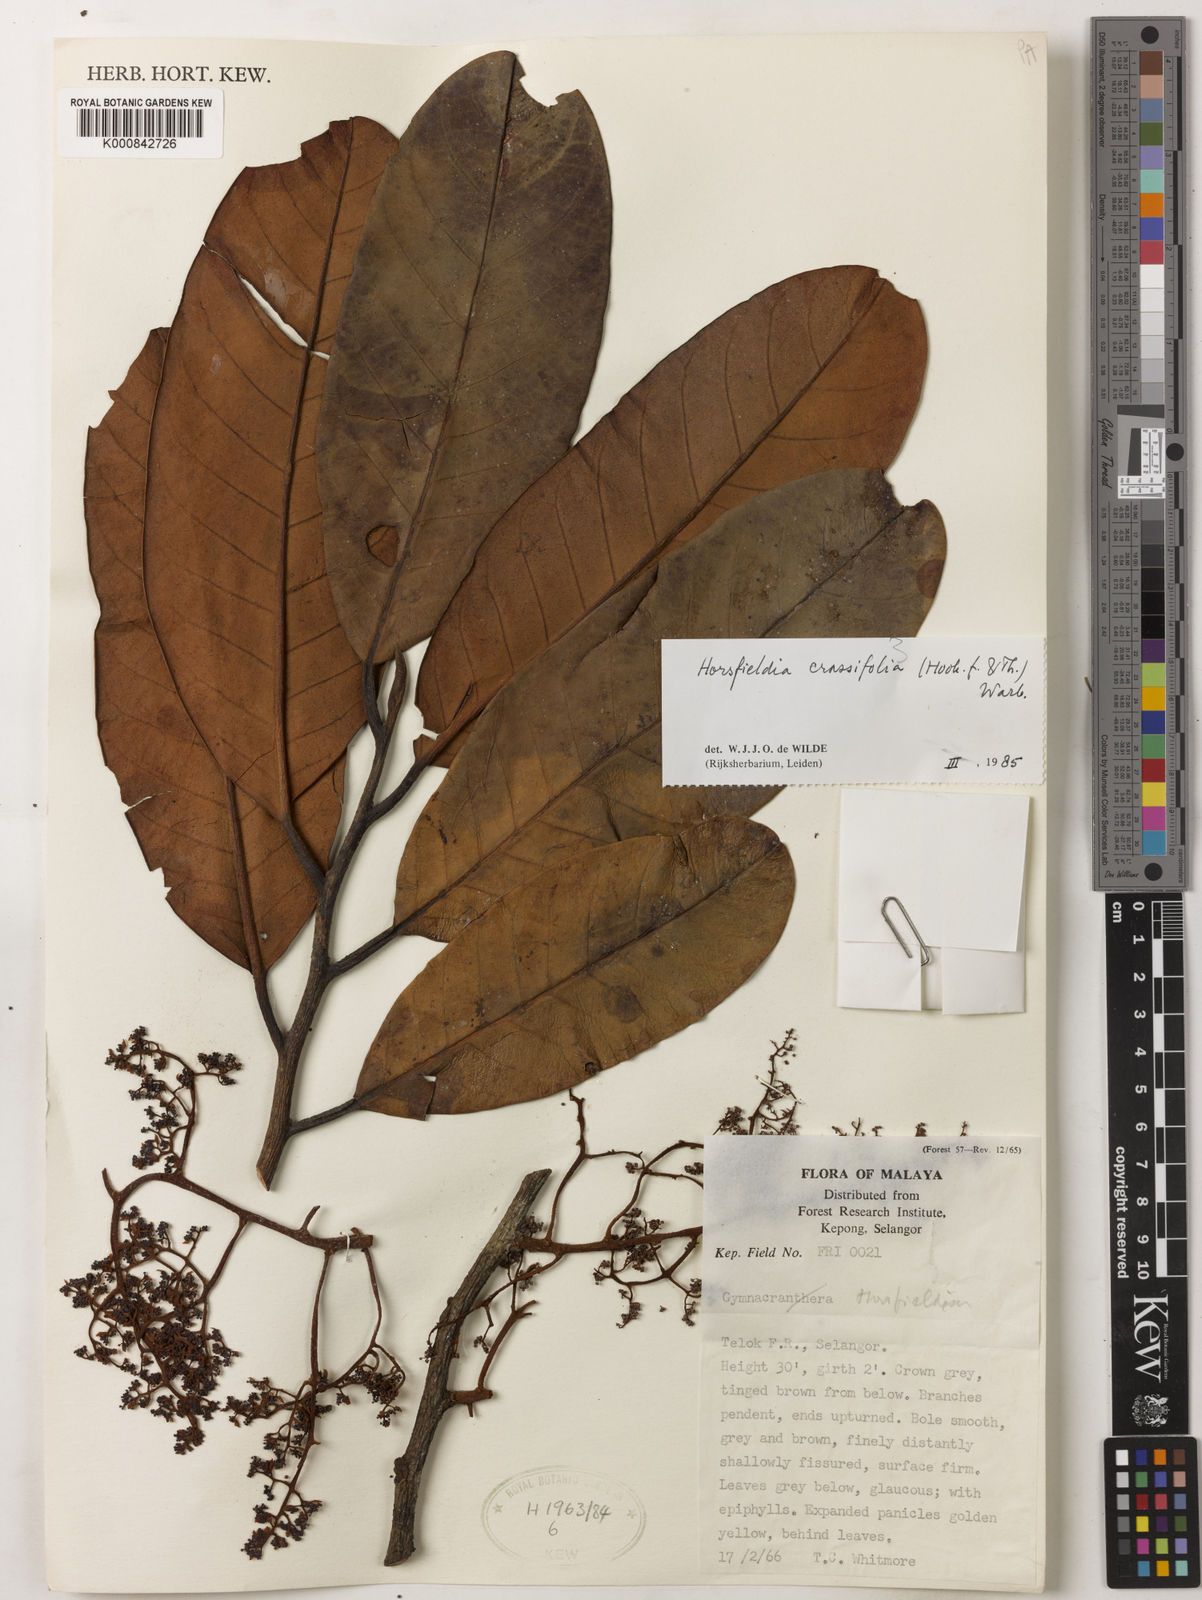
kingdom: Plantae
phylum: Tracheophyta
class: Magnoliopsida
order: Magnoliales
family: Myristicaceae
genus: Horsfieldia
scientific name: Horsfieldia crassifolia
